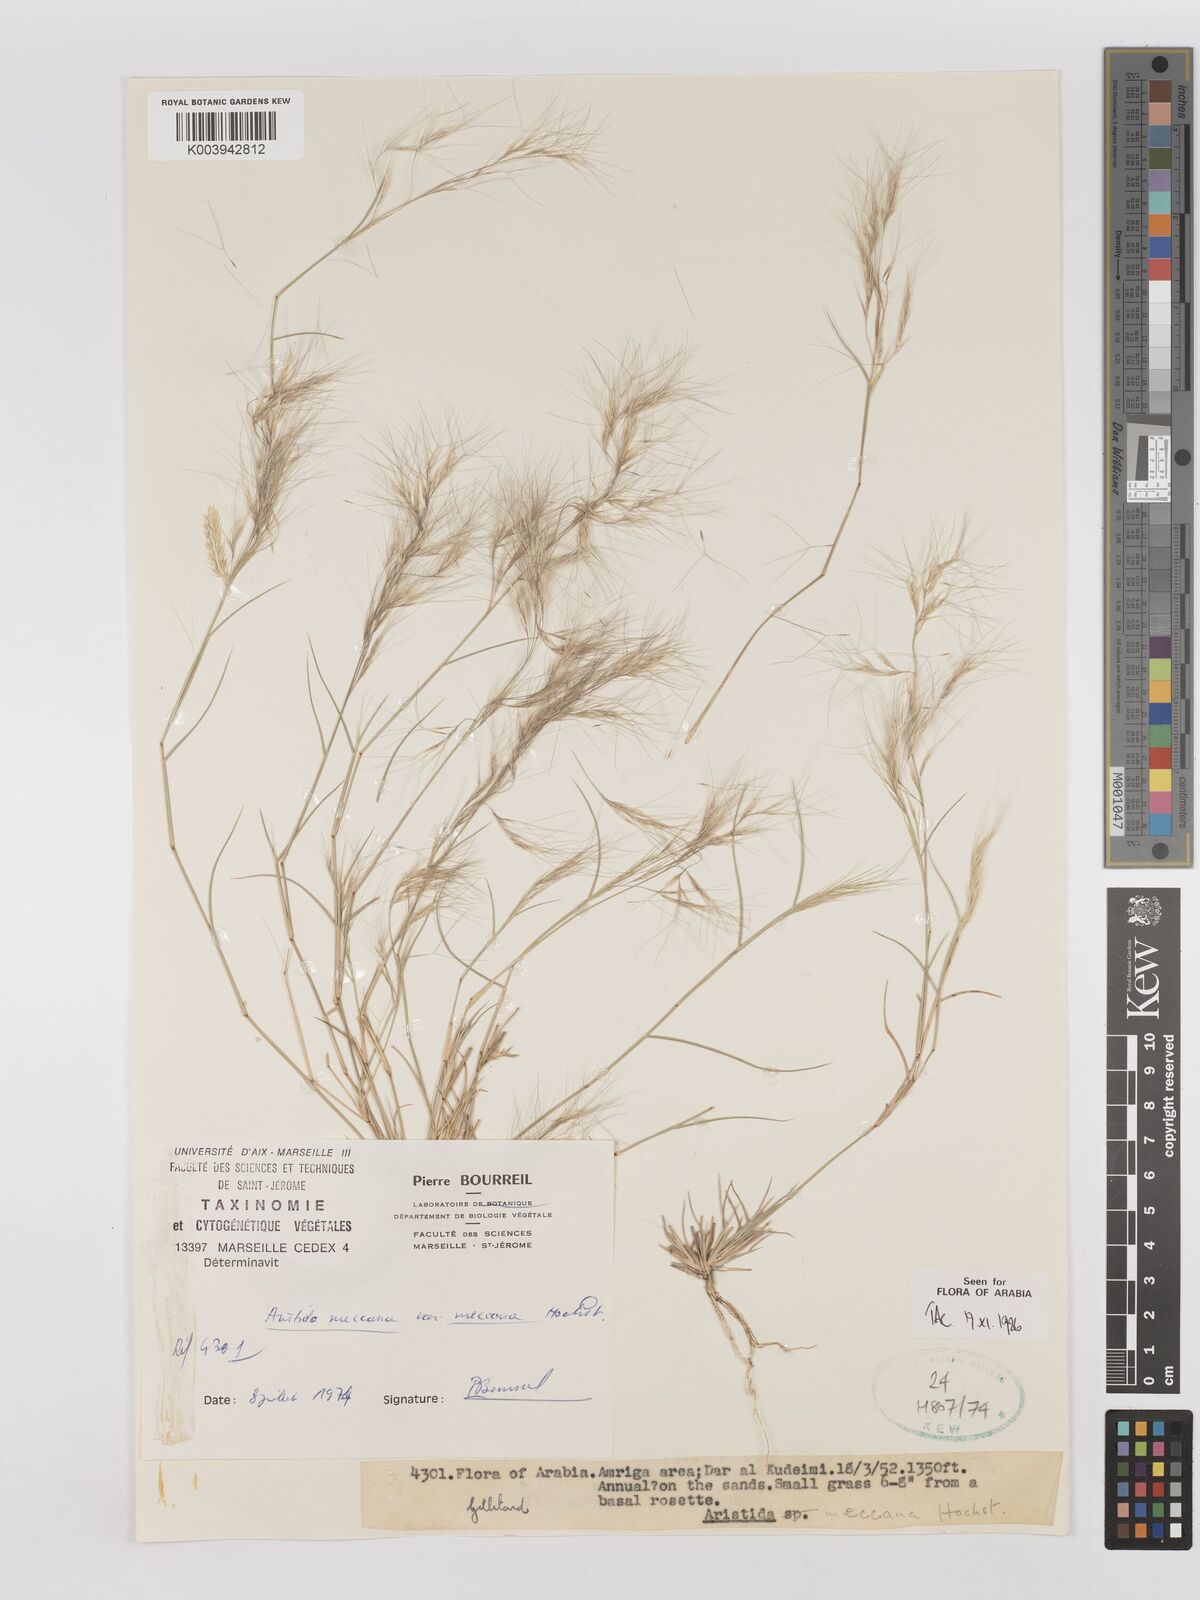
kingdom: Plantae
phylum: Tracheophyta
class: Liliopsida
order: Poales
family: Poaceae
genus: Aristida
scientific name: Aristida mutabilis
